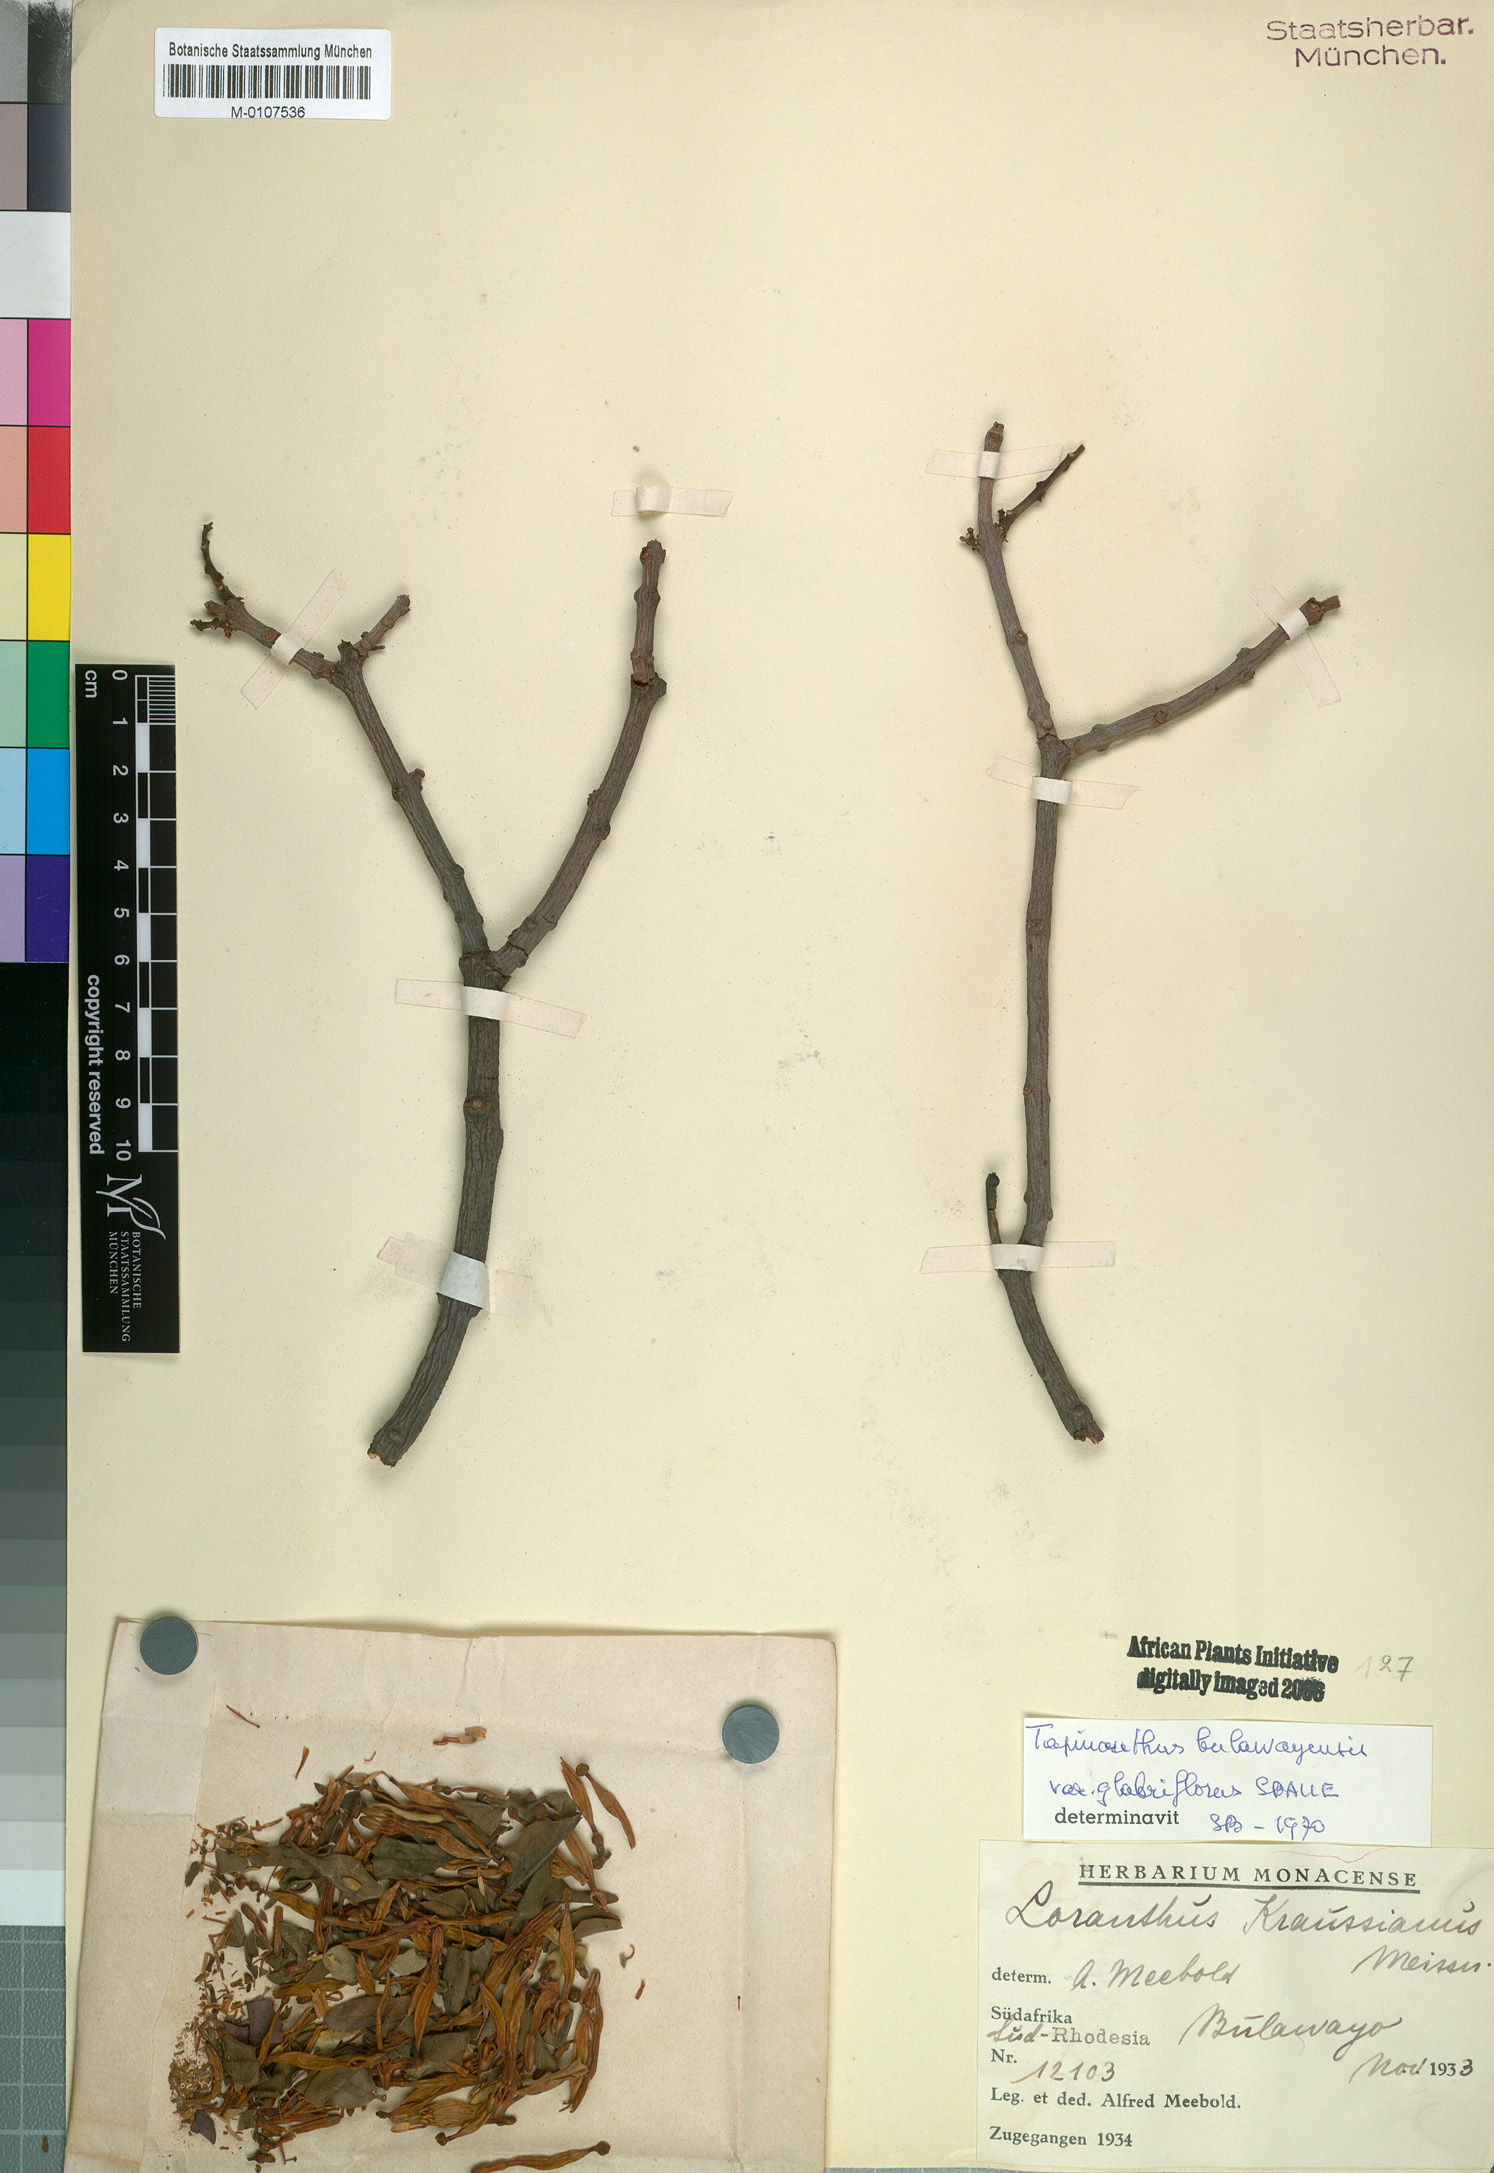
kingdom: Plantae
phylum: Tracheophyta
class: Magnoliopsida
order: Santalales
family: Loranthaceae
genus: Agelanthus
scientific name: Agelanthus pungu
